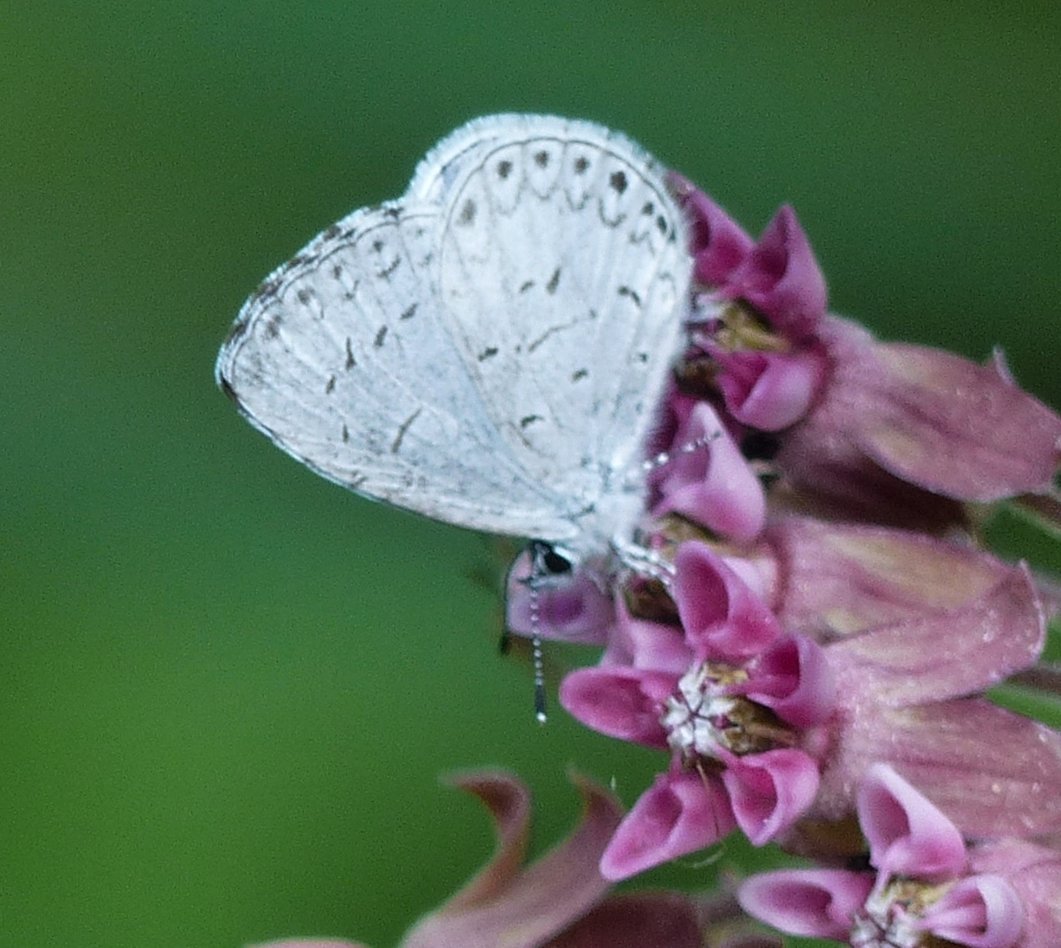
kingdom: Animalia
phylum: Arthropoda
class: Insecta
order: Lepidoptera
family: Lycaenidae
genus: Celastrina
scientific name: Celastrina lucia
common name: Northern Spring Azure
